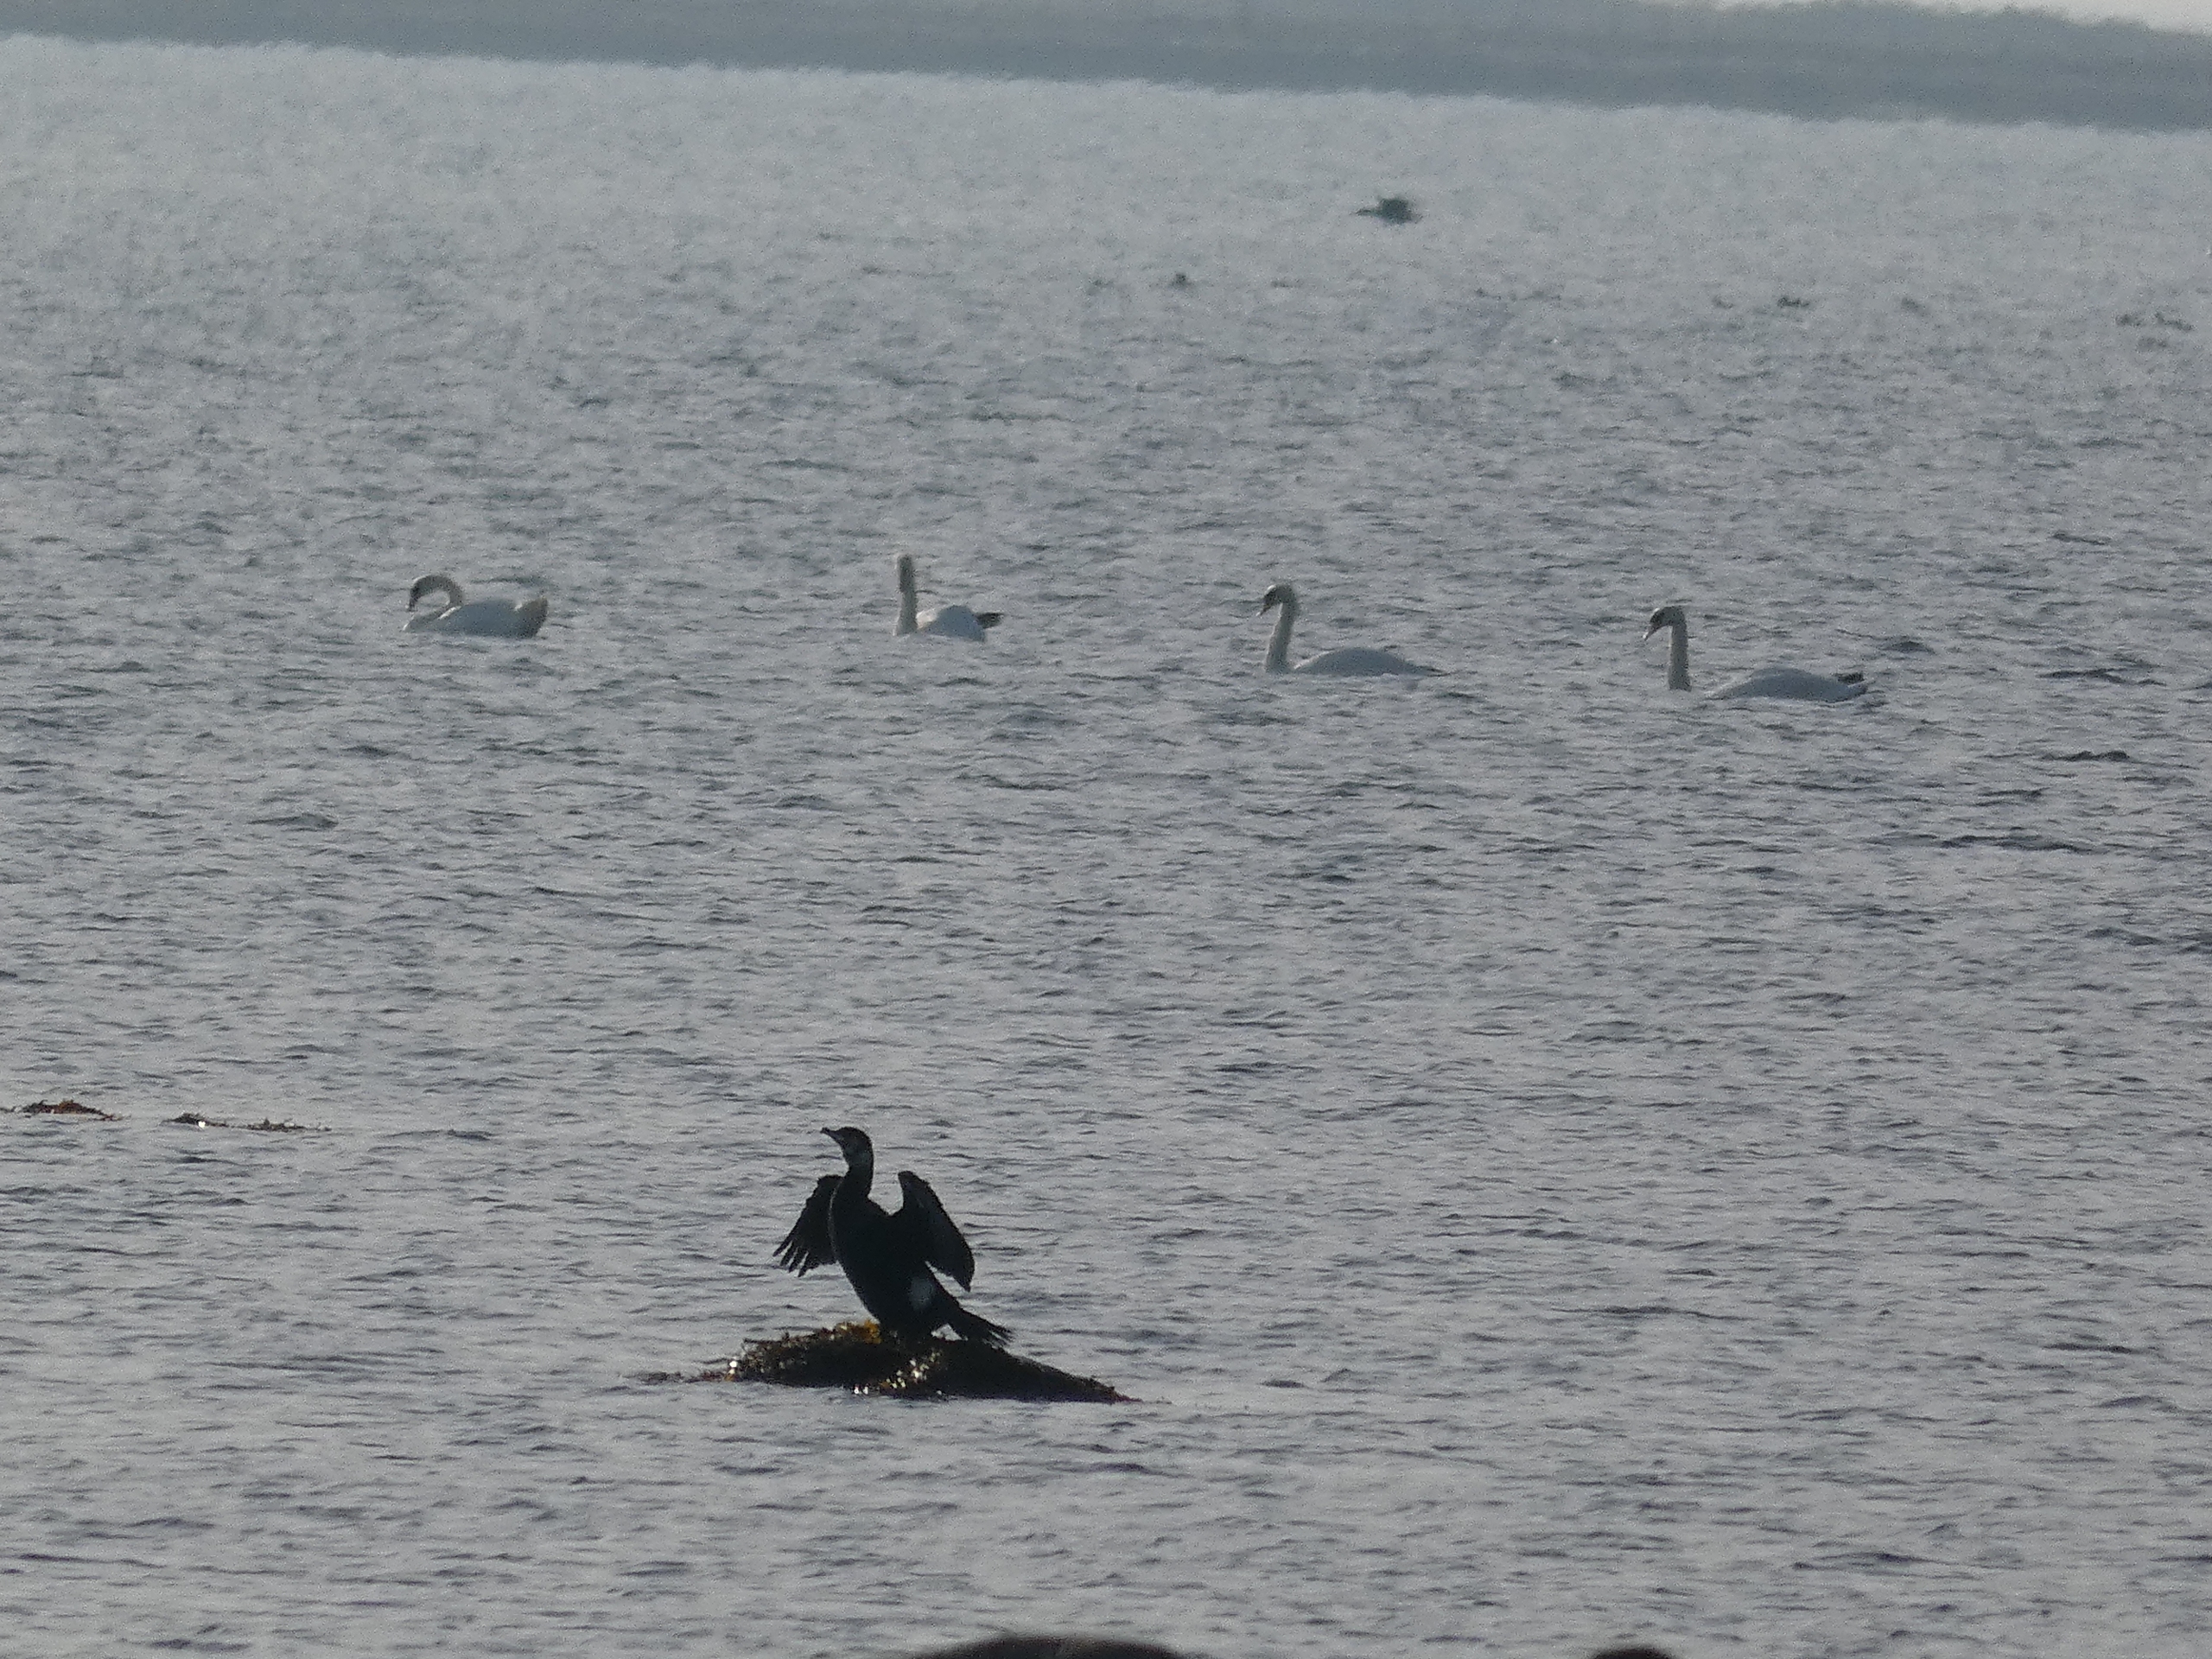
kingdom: Animalia
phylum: Chordata
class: Aves
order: Suliformes
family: Phalacrocoracidae
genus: Phalacrocorax
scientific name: Phalacrocorax carbo
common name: Skarv
